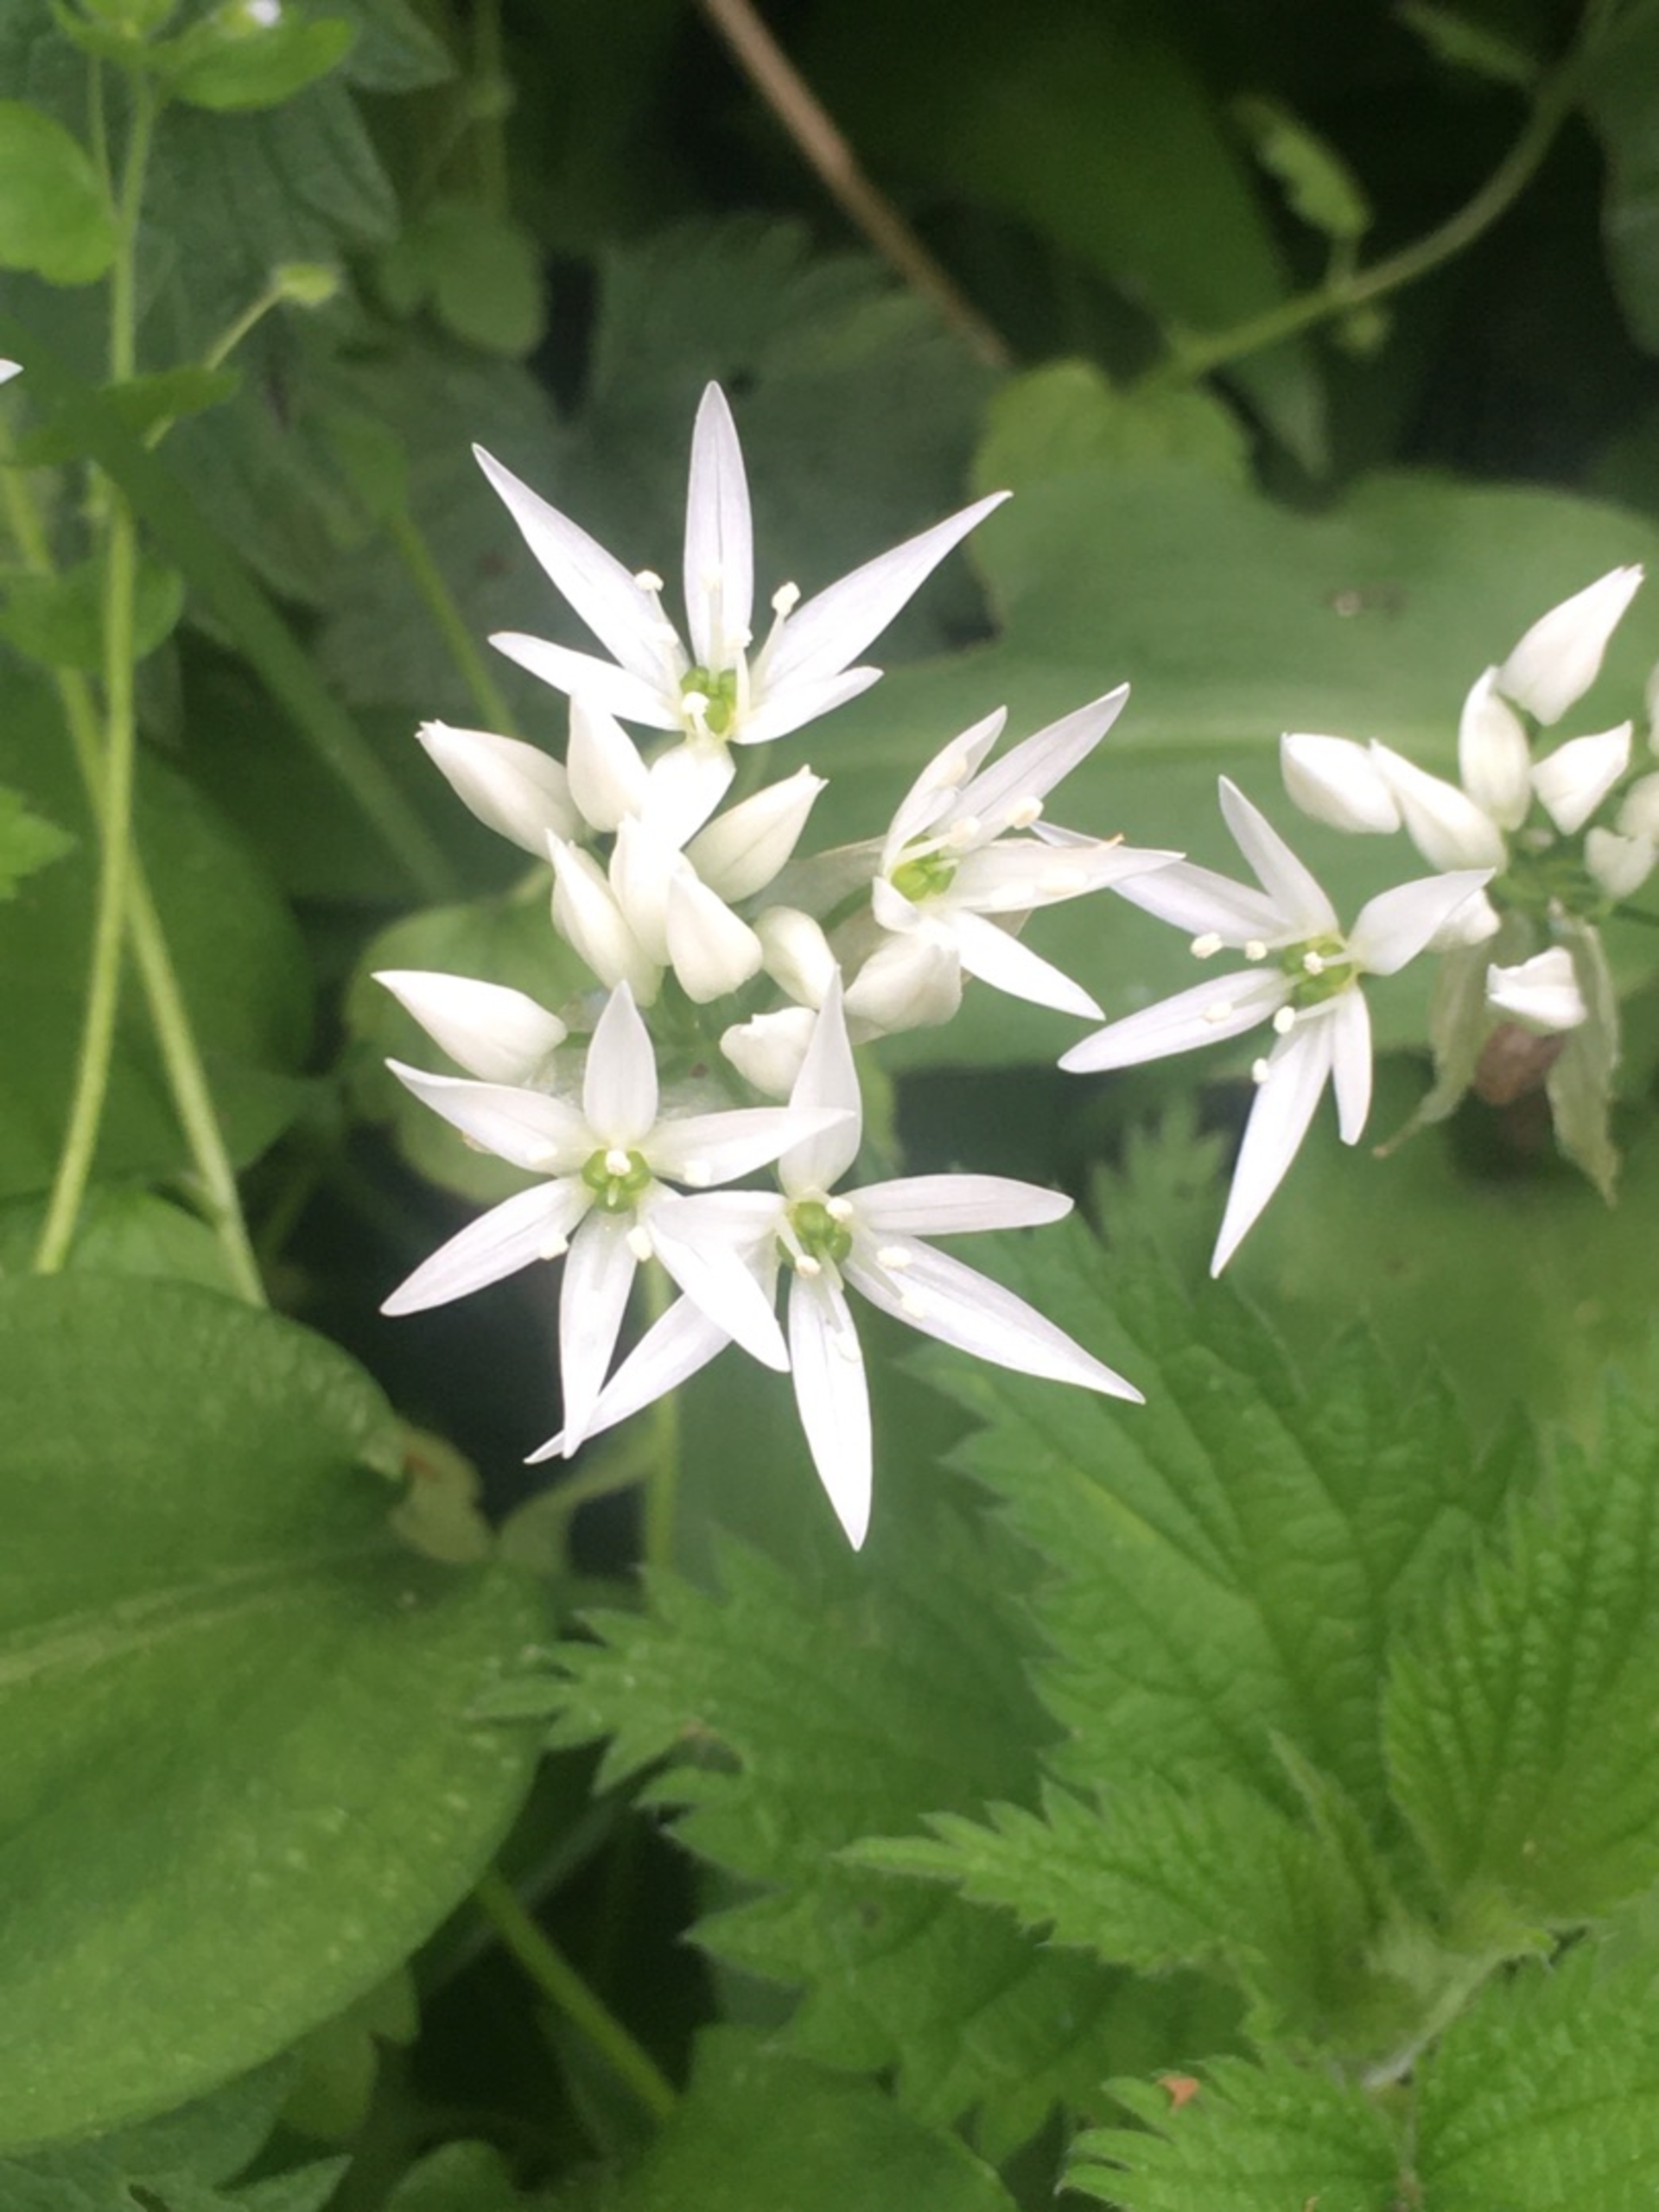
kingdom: Plantae
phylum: Tracheophyta
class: Liliopsida
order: Asparagales
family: Amaryllidaceae
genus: Allium
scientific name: Allium ursinum
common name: Rams-løg
